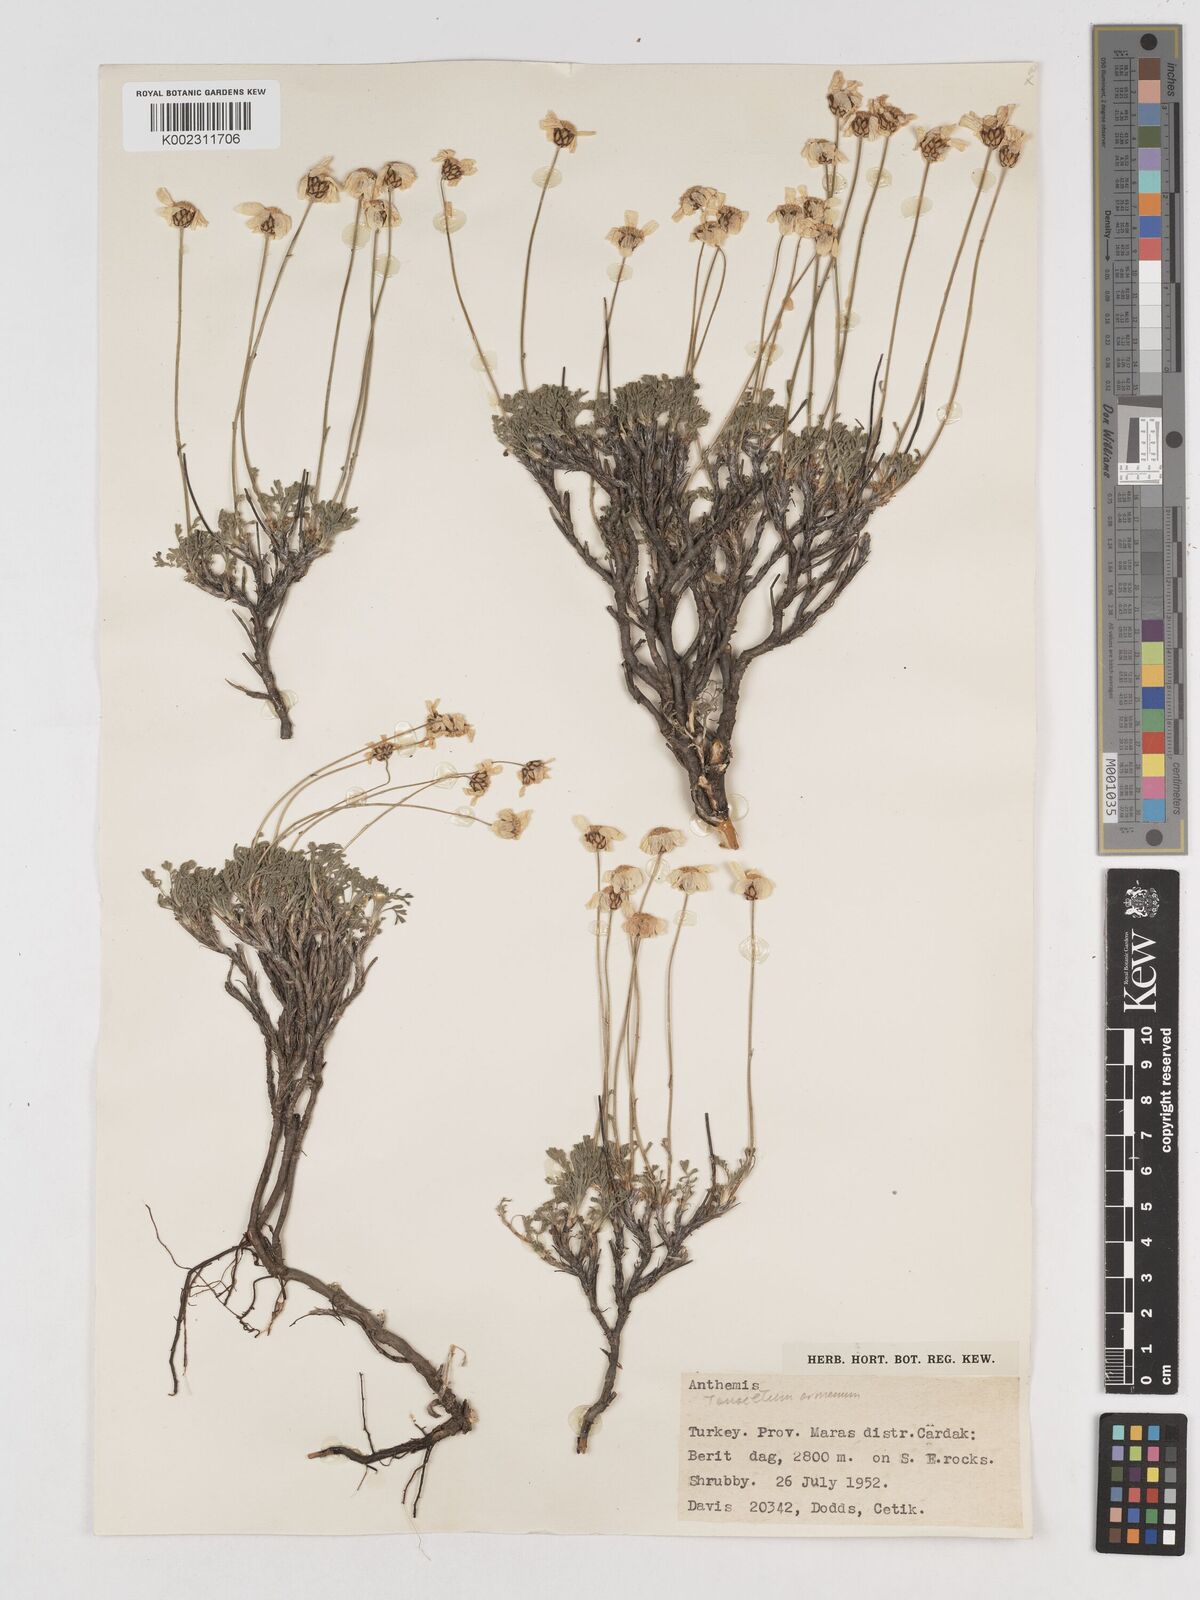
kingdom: Plantae
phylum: Tracheophyta
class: Magnoliopsida
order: Asterales
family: Asteraceae
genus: Tanacetum
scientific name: Tanacetum armenum
